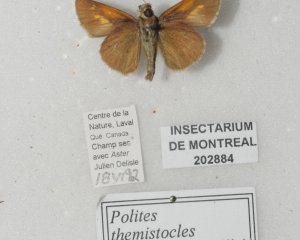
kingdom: Animalia
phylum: Arthropoda
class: Insecta
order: Lepidoptera
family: Hesperiidae
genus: Polites
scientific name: Polites themistocles
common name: Tawny-edged Skipper
